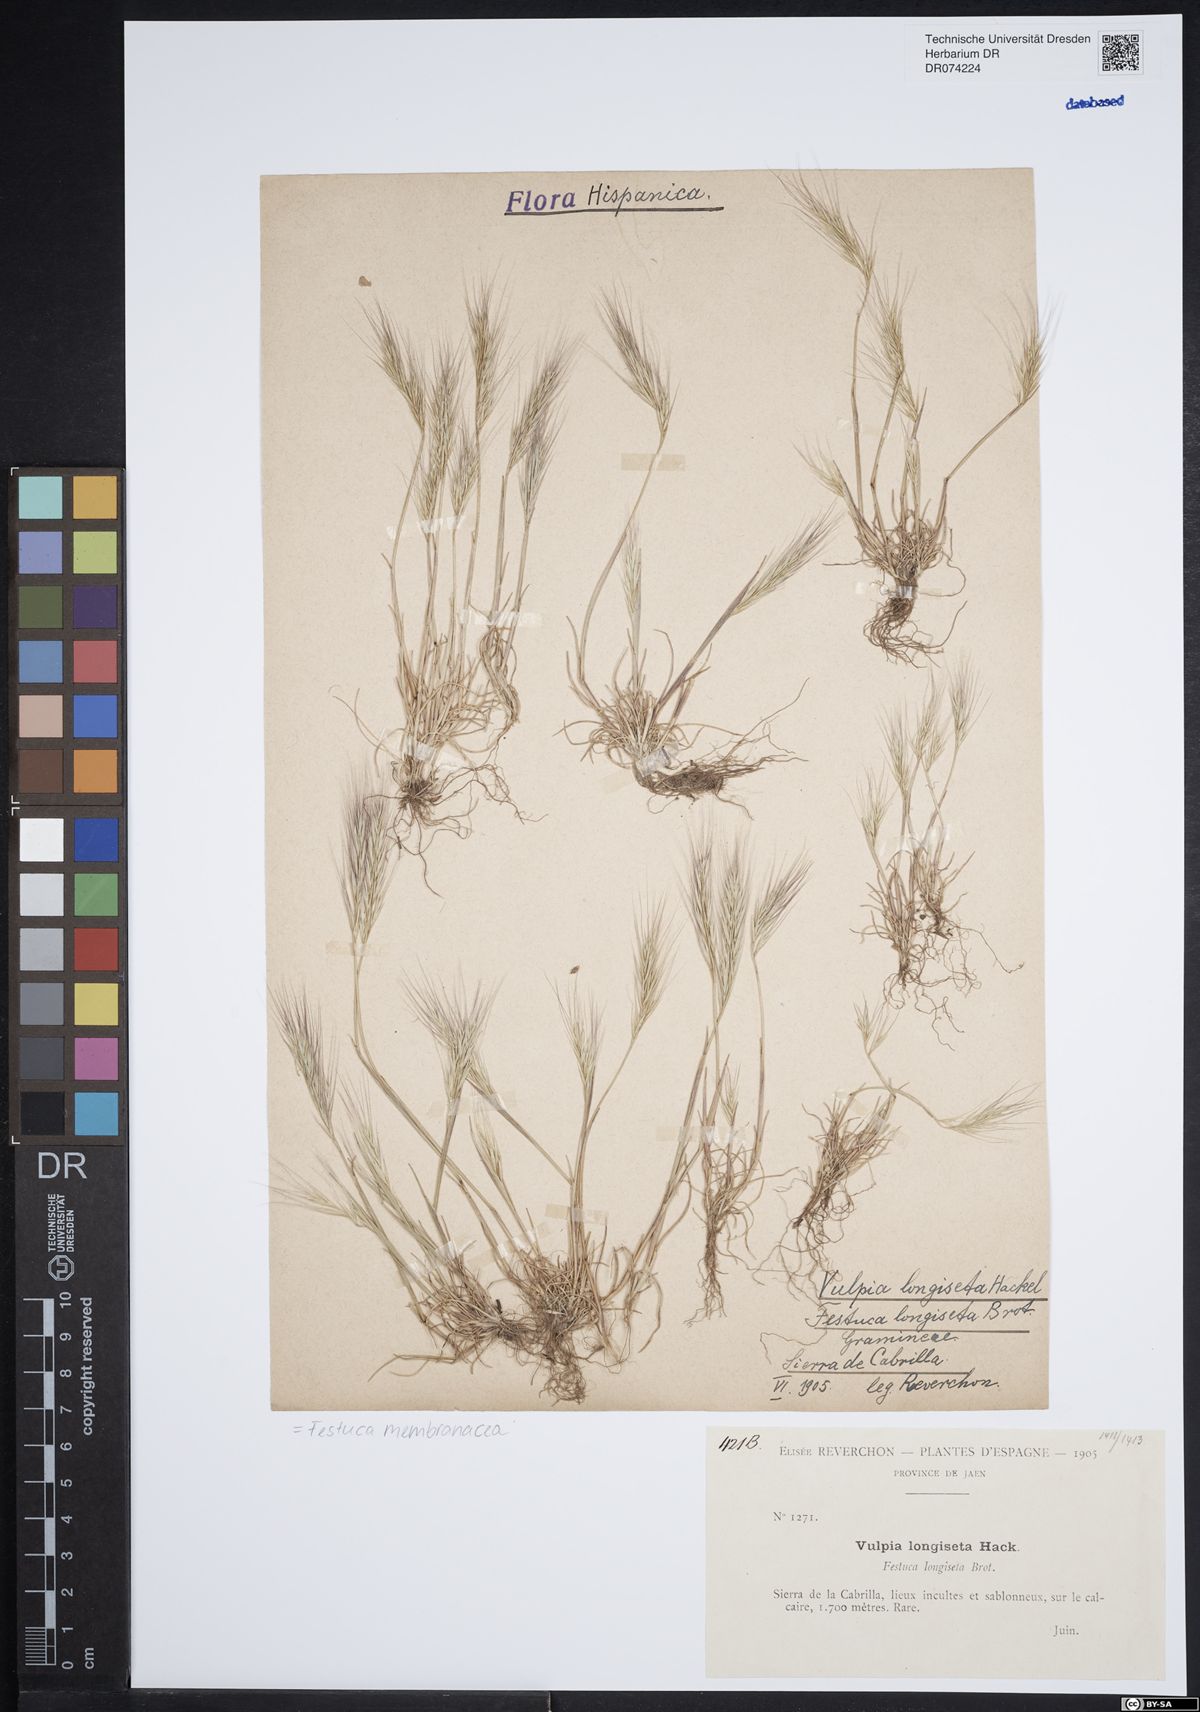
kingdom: Plantae
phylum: Tracheophyta
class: Liliopsida
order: Poales
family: Poaceae
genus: Festuca
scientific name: Festuca membranacea
